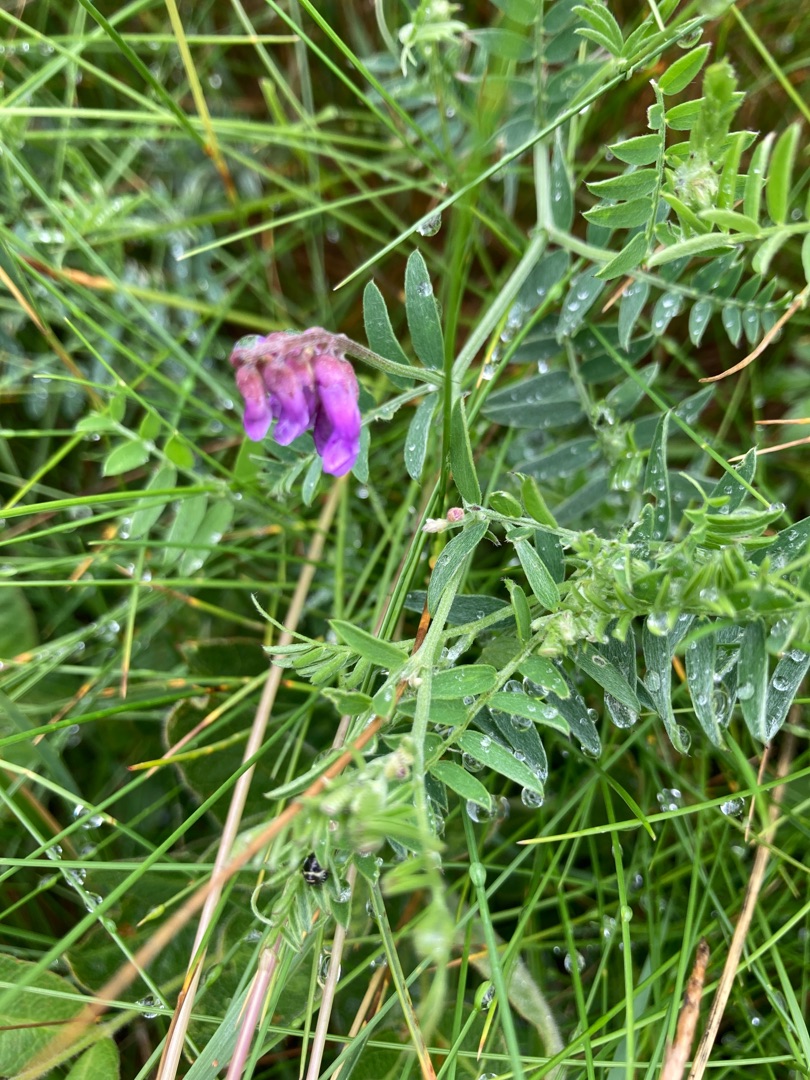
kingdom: Plantae
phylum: Tracheophyta
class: Magnoliopsida
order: Fabales
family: Fabaceae
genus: Vicia
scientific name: Vicia cracca
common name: Muse-vikke
